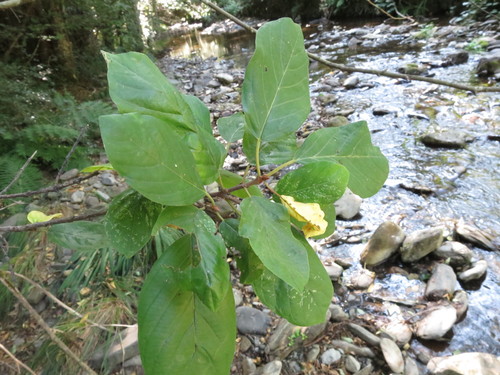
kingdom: Plantae
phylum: Tracheophyta
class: Magnoliopsida
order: Rosales
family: Rhamnaceae
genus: Frangula
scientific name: Frangula alnus
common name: Alder buckthorn
